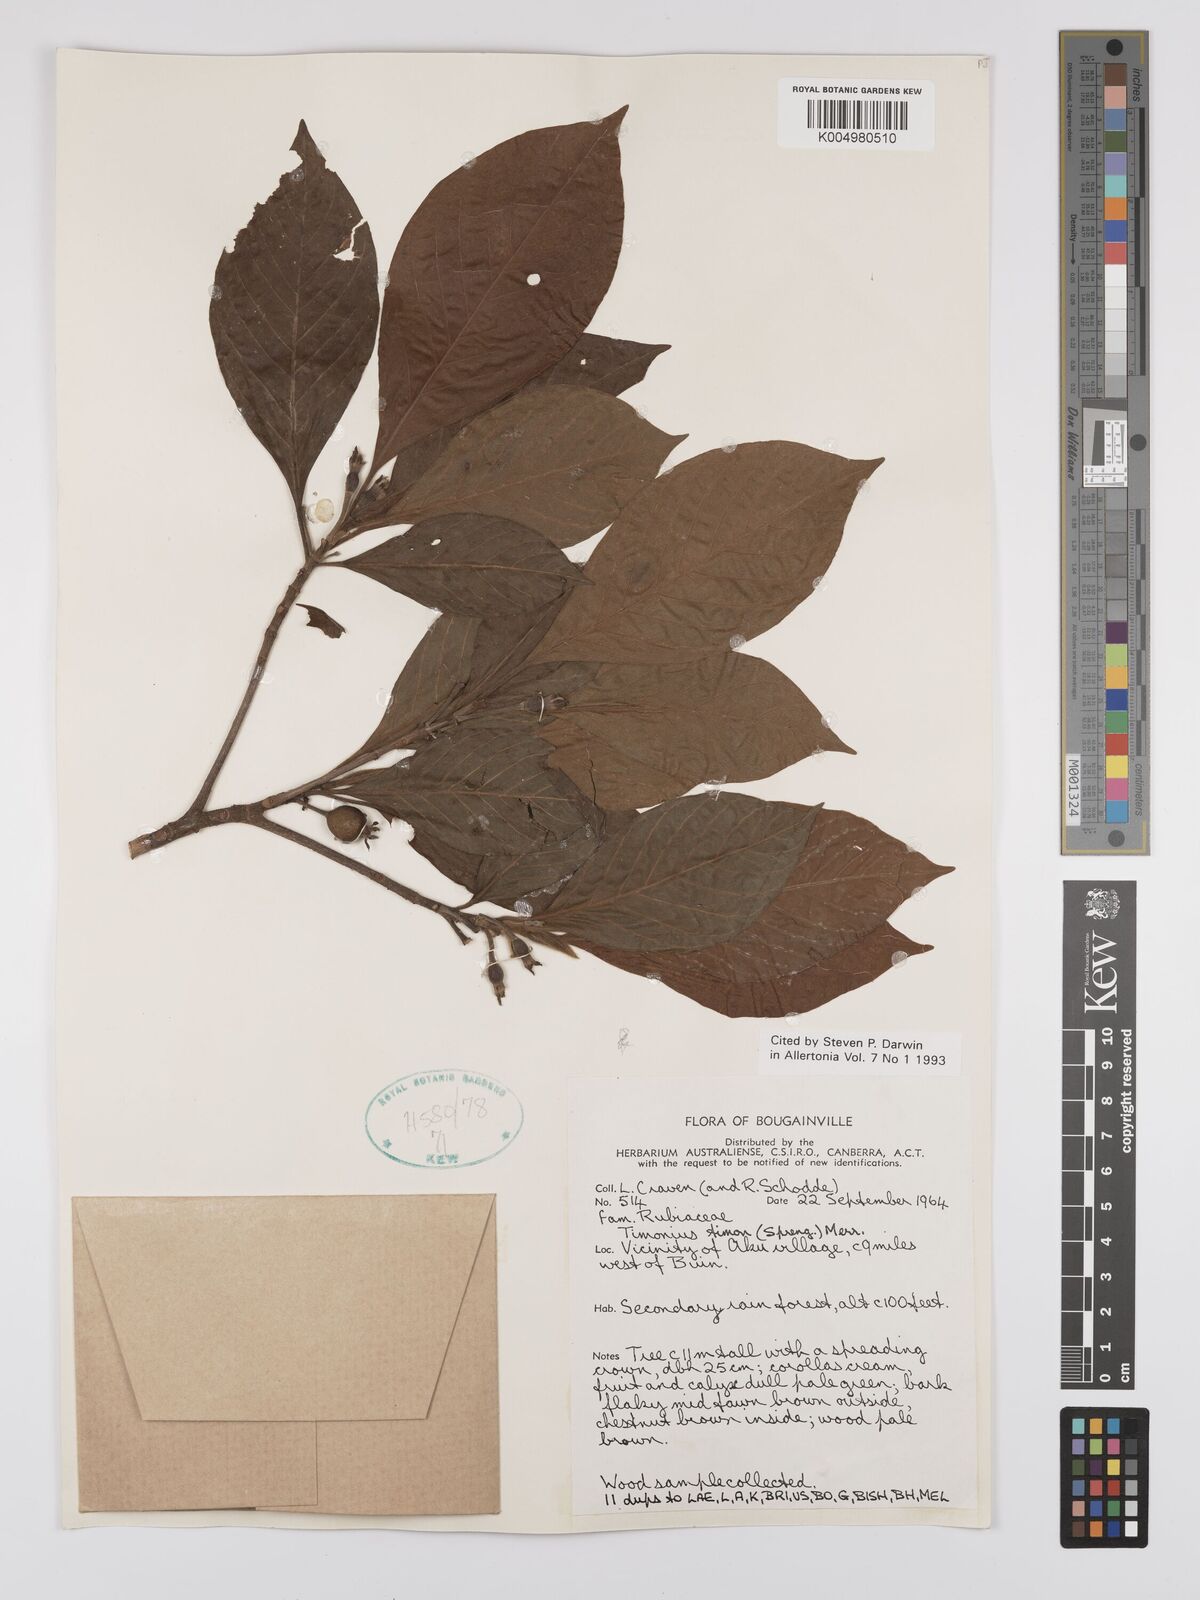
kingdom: Plantae
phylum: Tracheophyta
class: Magnoliopsida
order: Gentianales
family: Rubiaceae
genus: Timonius
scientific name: Timonius timon
